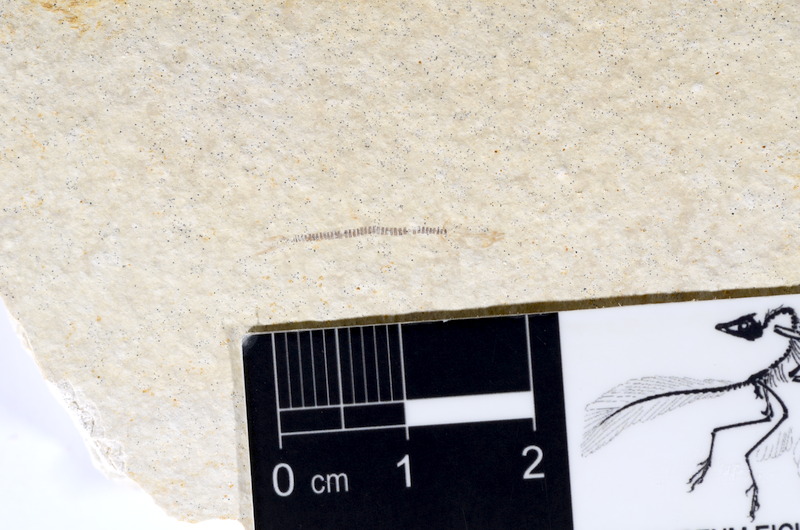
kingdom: Animalia
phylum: Chordata
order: Salmoniformes
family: Orthogonikleithridae
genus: Orthogonikleithrus
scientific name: Orthogonikleithrus hoelli
